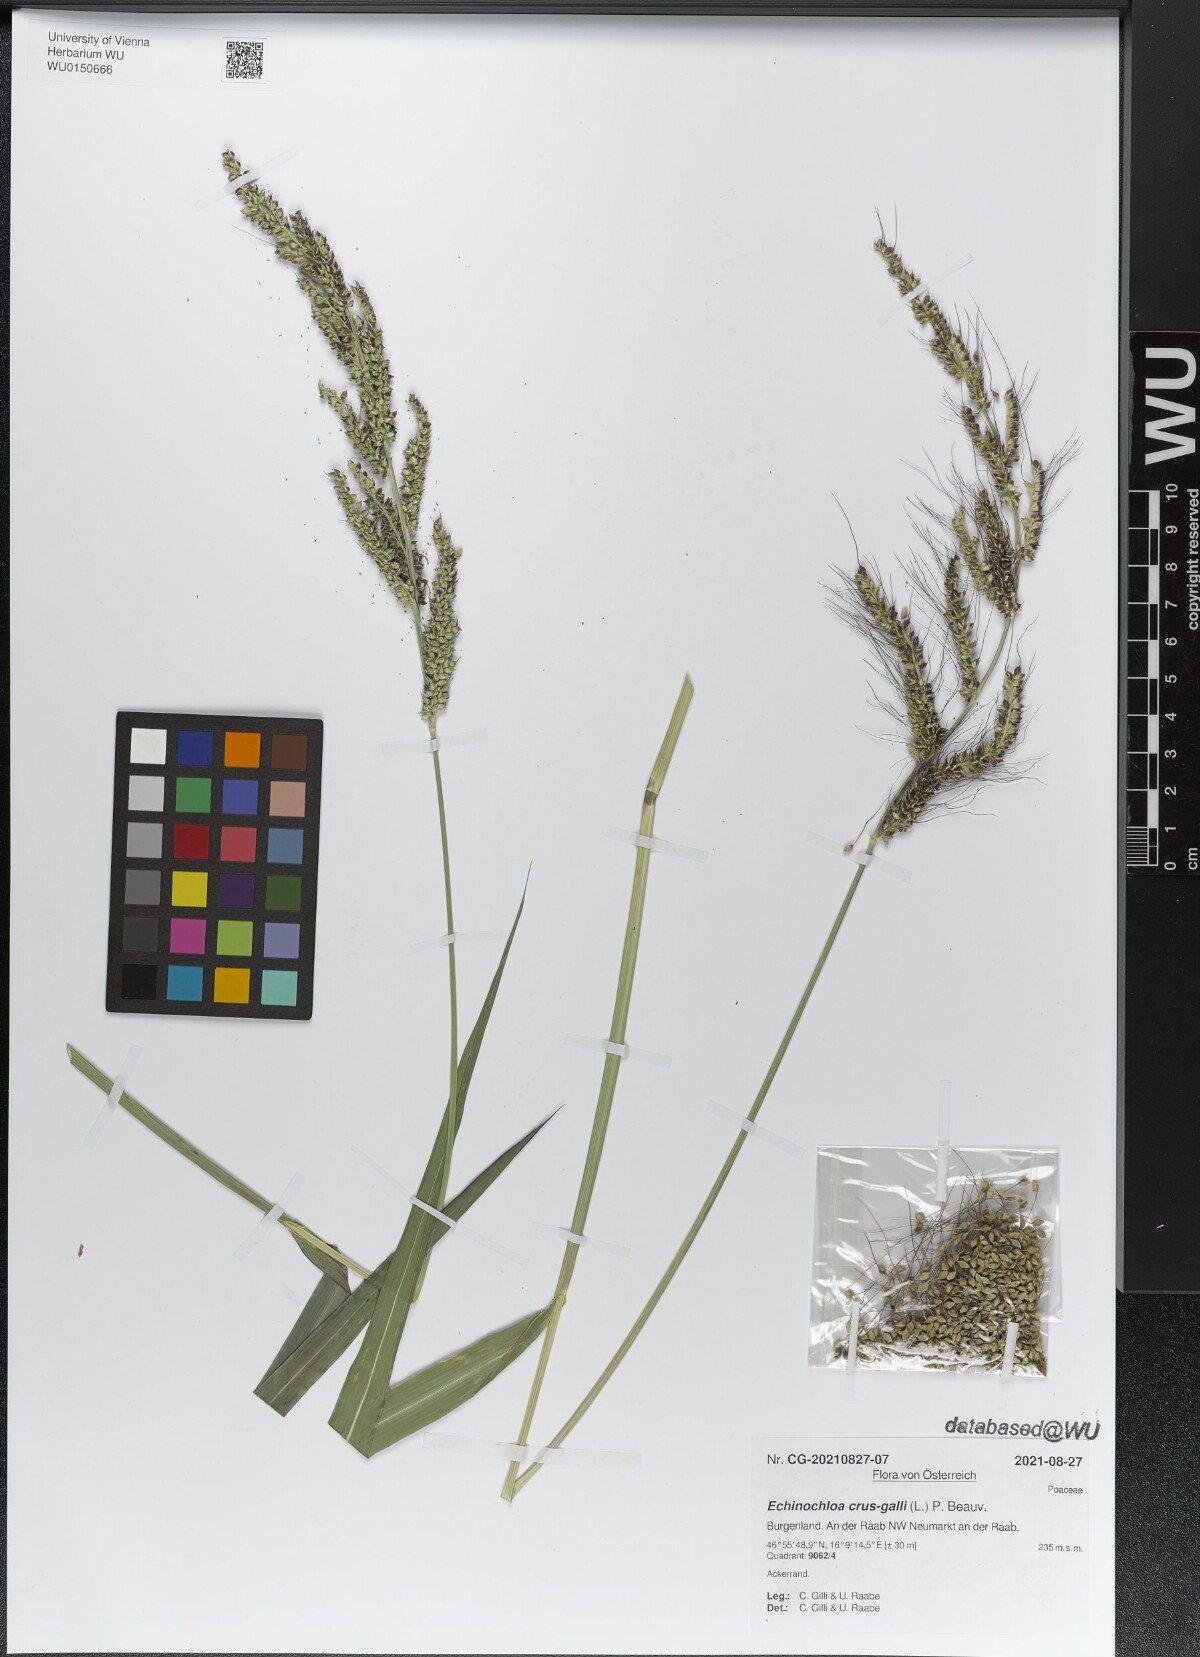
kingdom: Plantae
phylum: Tracheophyta
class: Liliopsida
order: Poales
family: Poaceae
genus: Echinochloa
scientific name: Echinochloa crus-galli
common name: Cockspur
